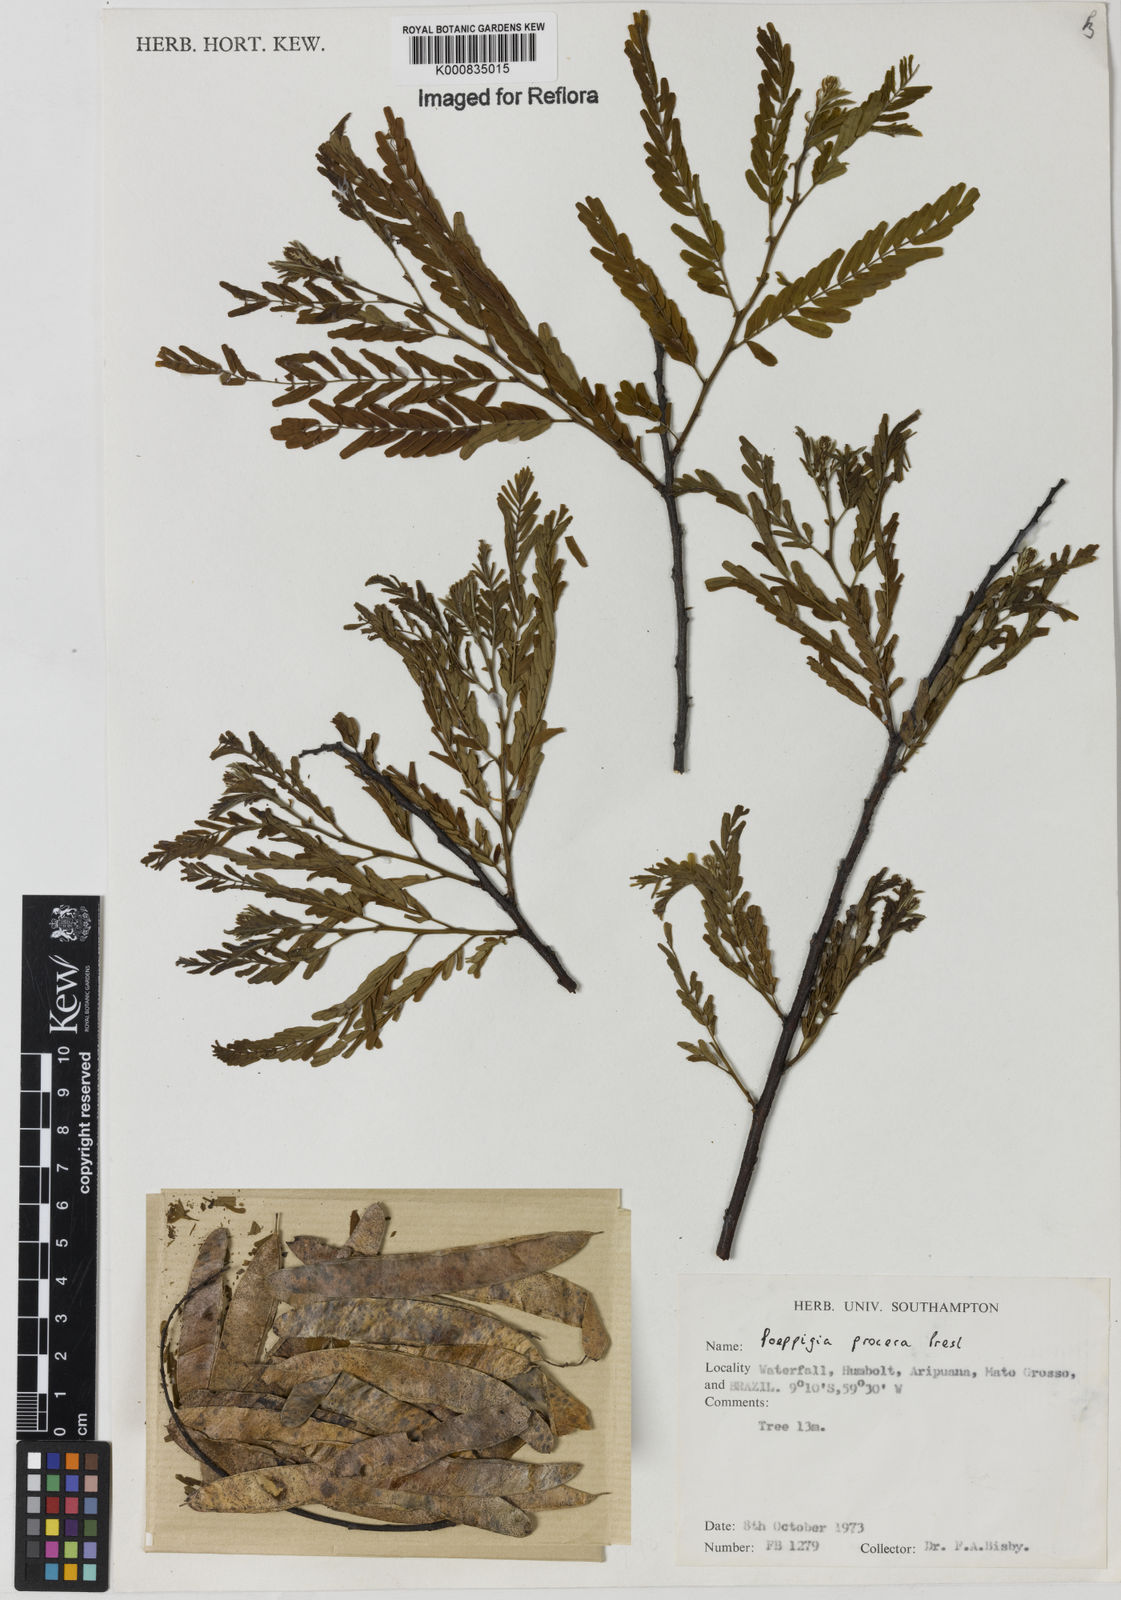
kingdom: Plantae
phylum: Tracheophyta
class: Magnoliopsida
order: Fabales
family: Fabaceae
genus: Poeppigia
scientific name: Poeppigia procera
